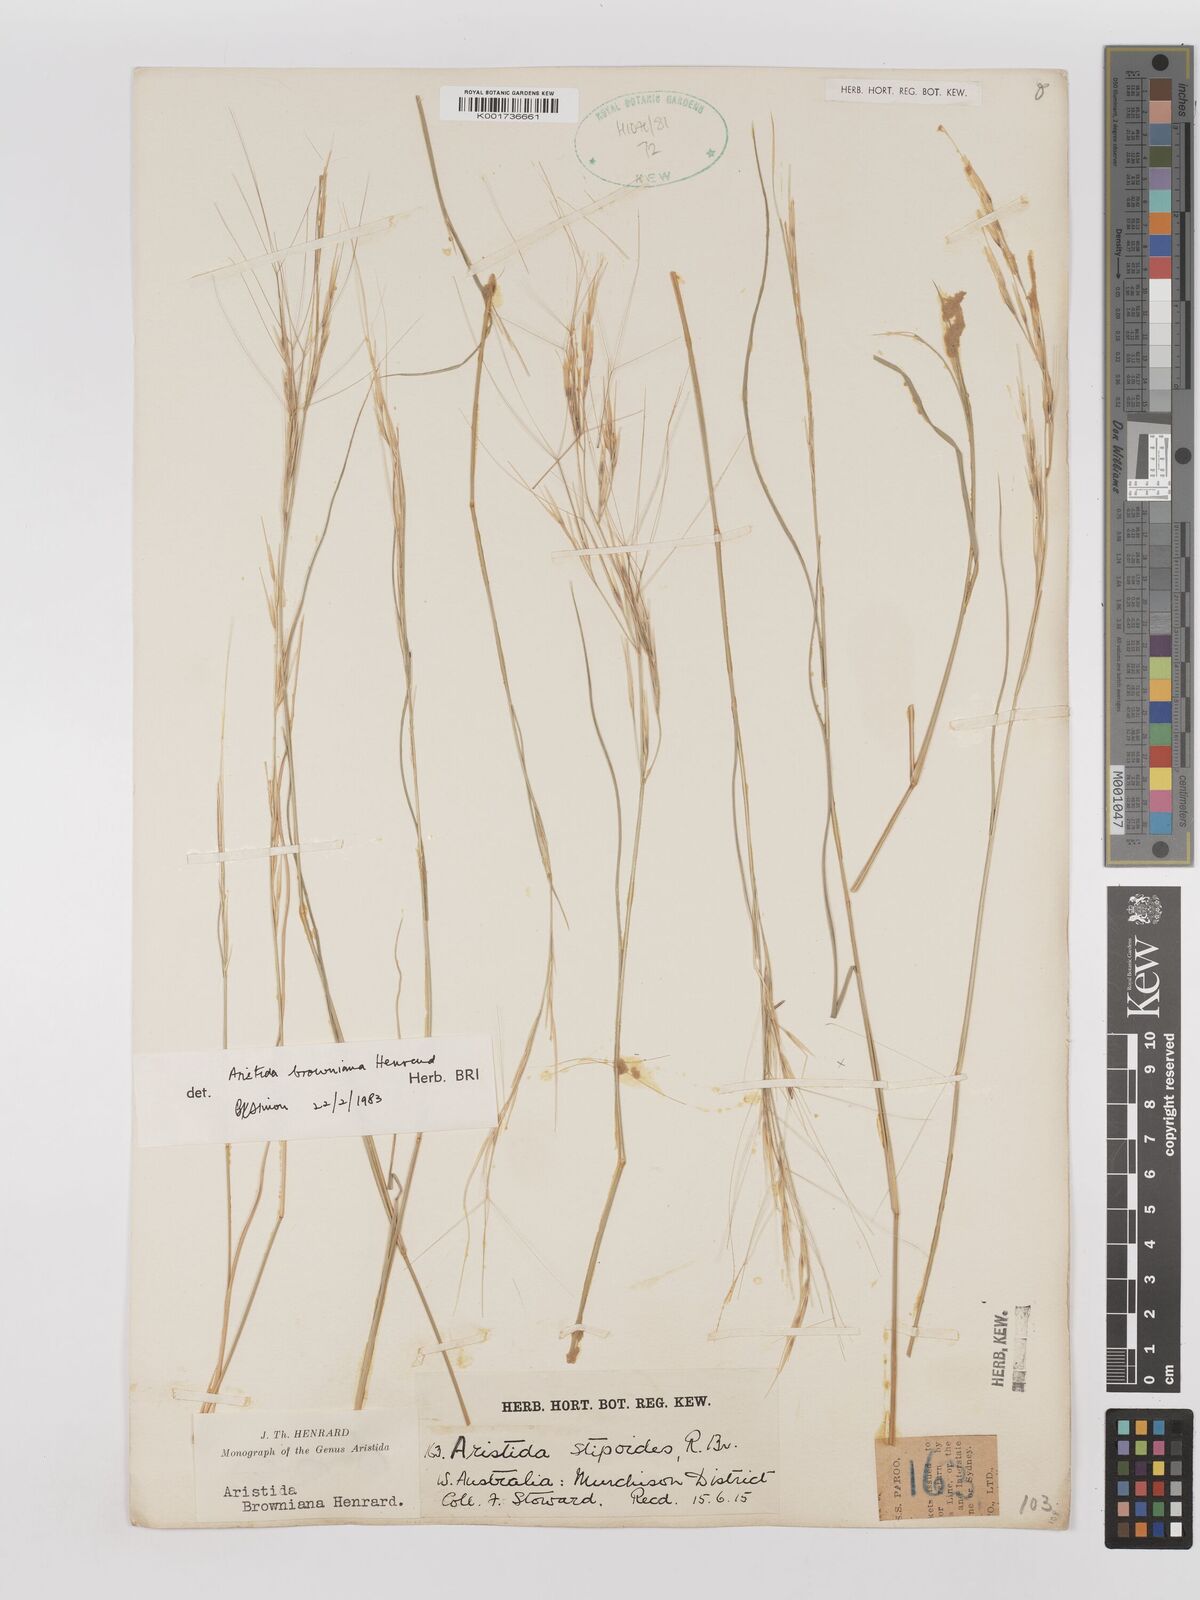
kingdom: Plantae
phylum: Tracheophyta
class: Liliopsida
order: Poales
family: Poaceae
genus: Aristida
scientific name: Aristida holathera
